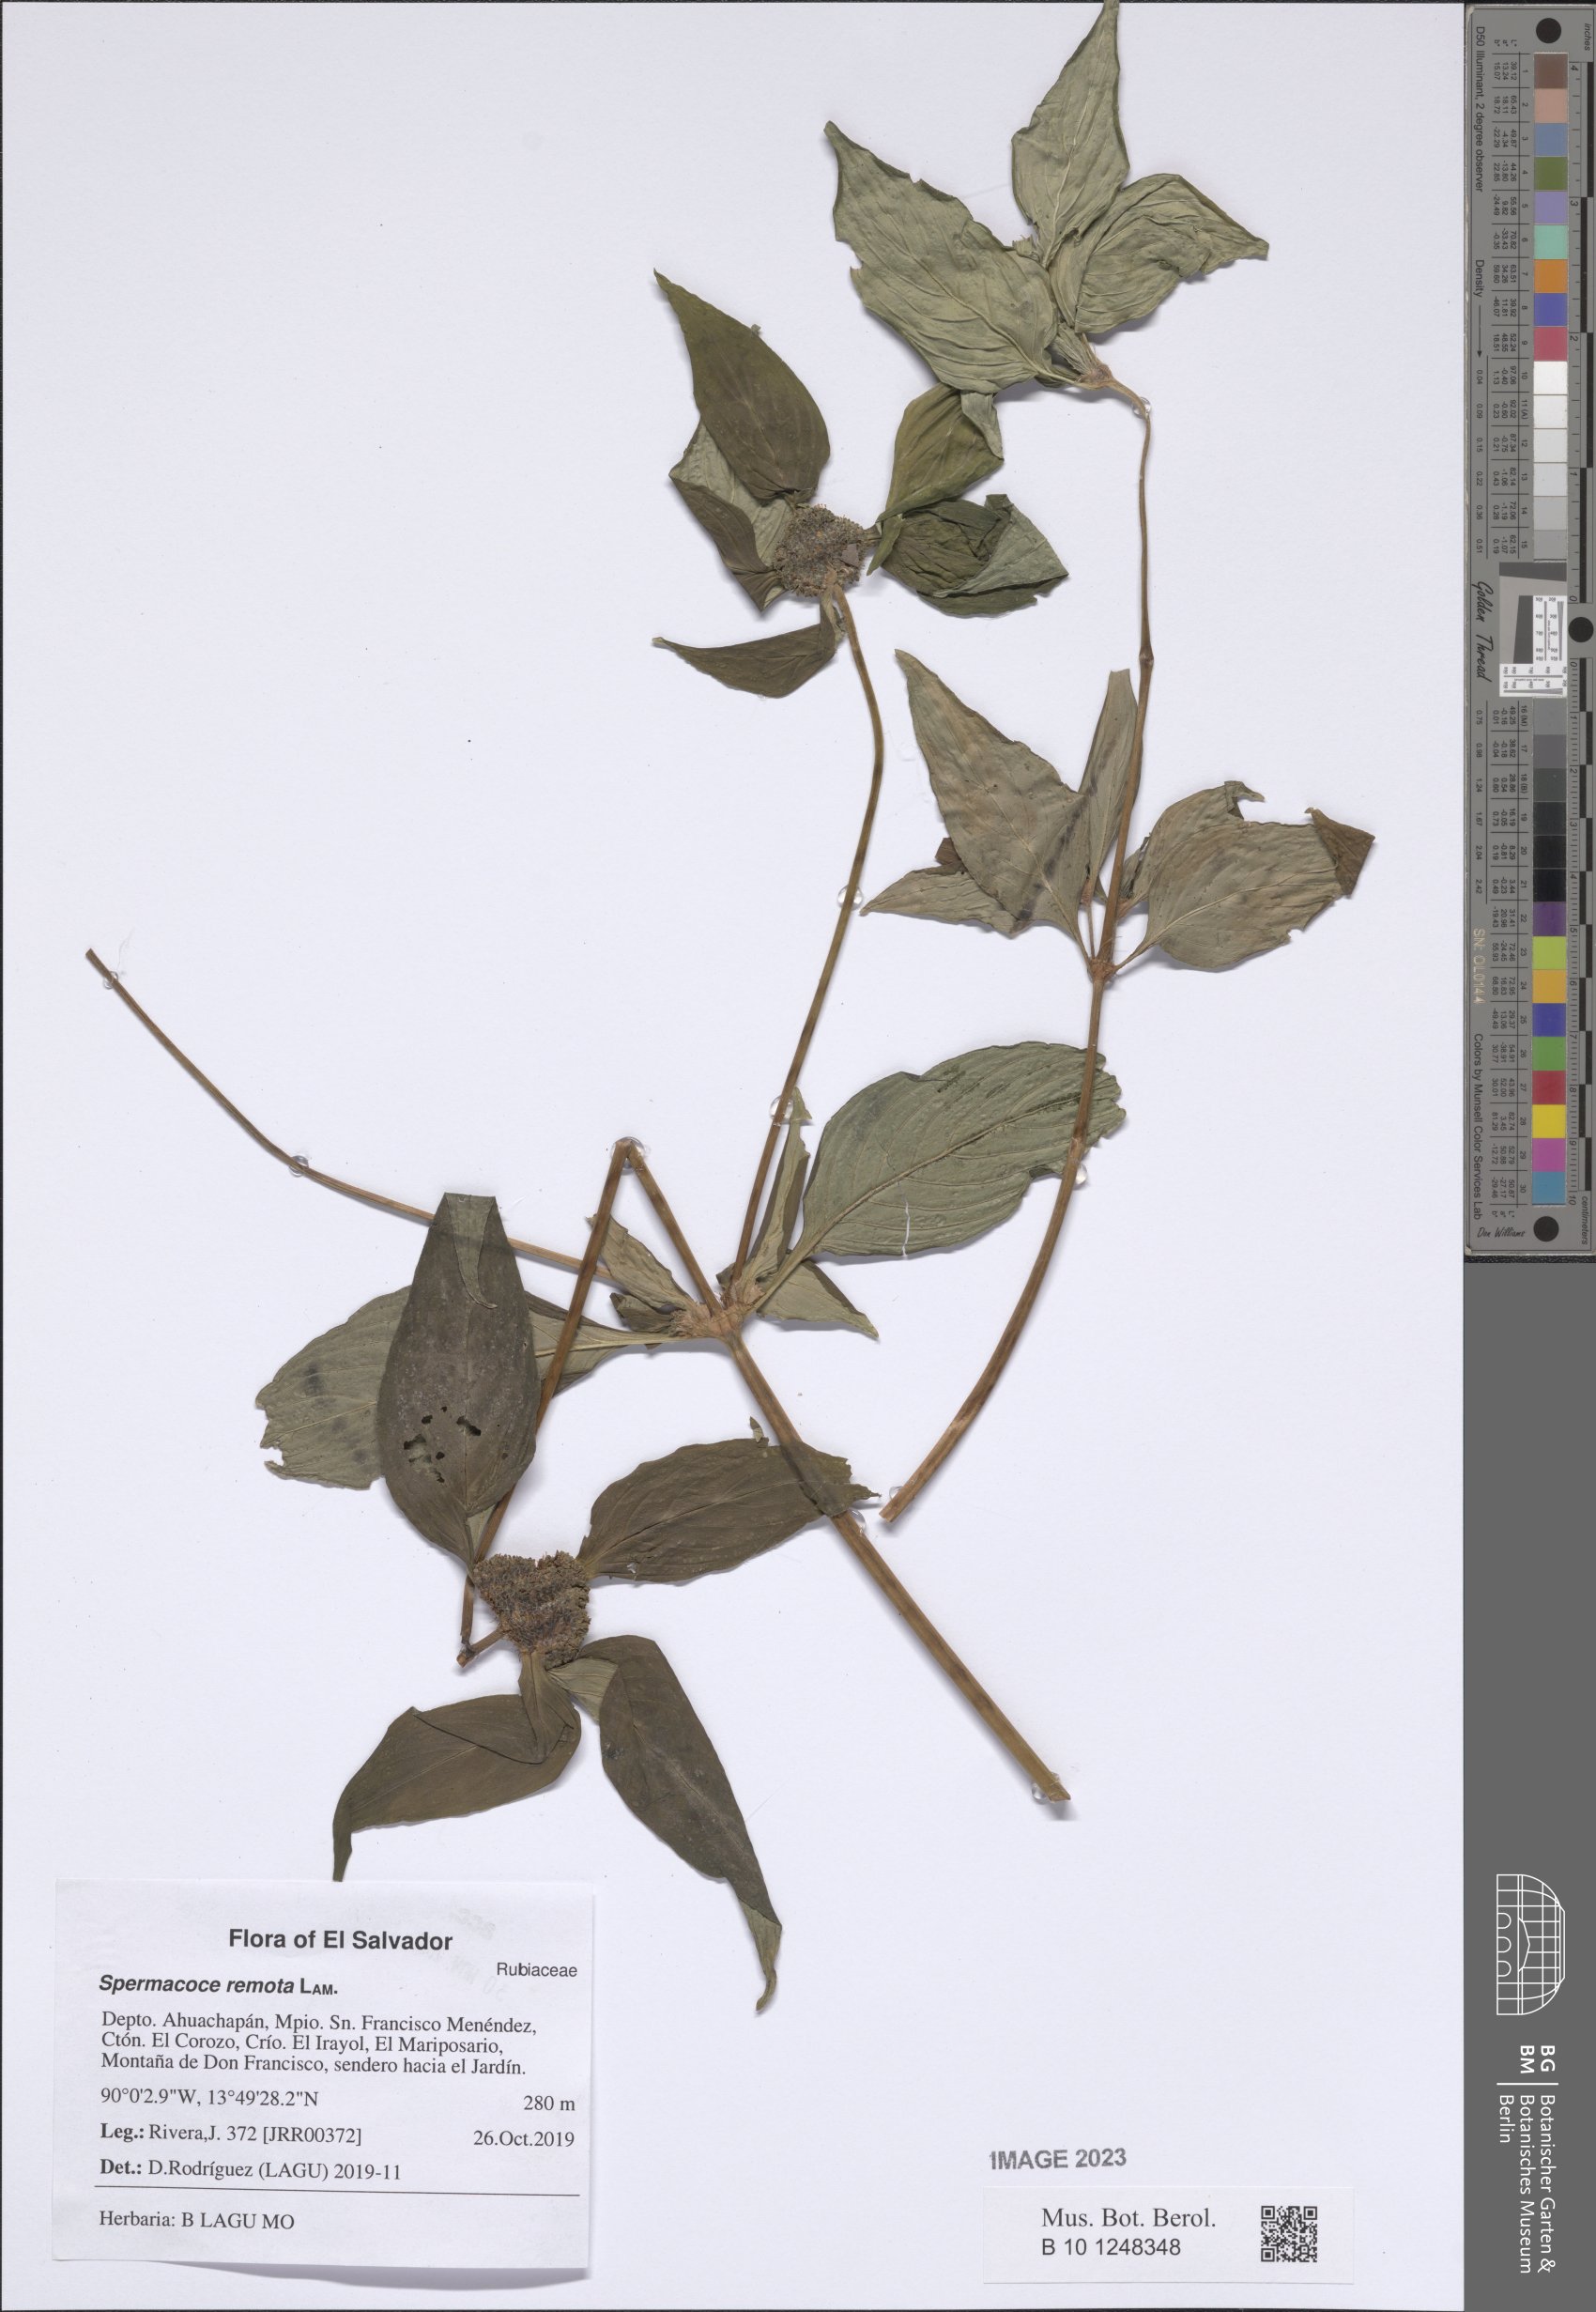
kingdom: Plantae
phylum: Tracheophyta
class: Magnoliopsida
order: Gentianales
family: Rubiaceae
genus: Spermacoce
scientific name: Spermacoce remota
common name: Woodland false buttonweed
